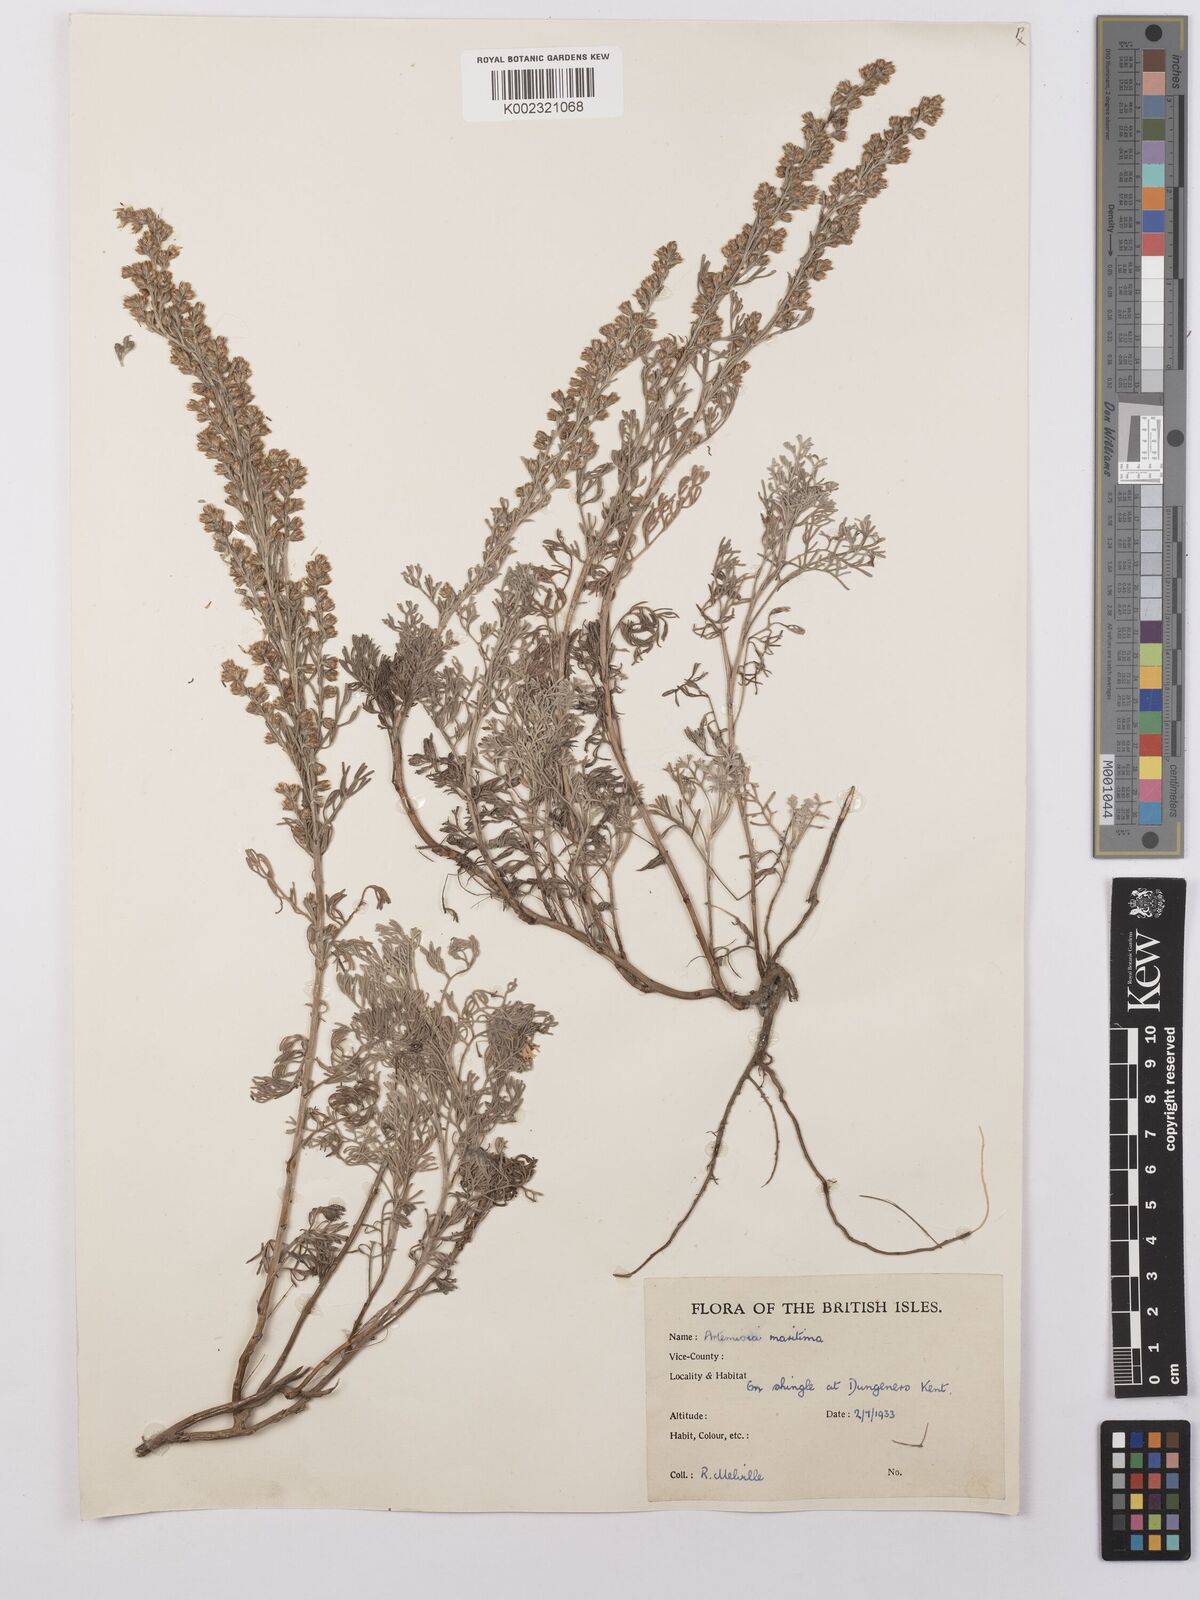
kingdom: Plantae
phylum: Tracheophyta
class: Magnoliopsida
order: Asterales
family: Asteraceae
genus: Artemisia
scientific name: Artemisia maritima
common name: Wormseed
